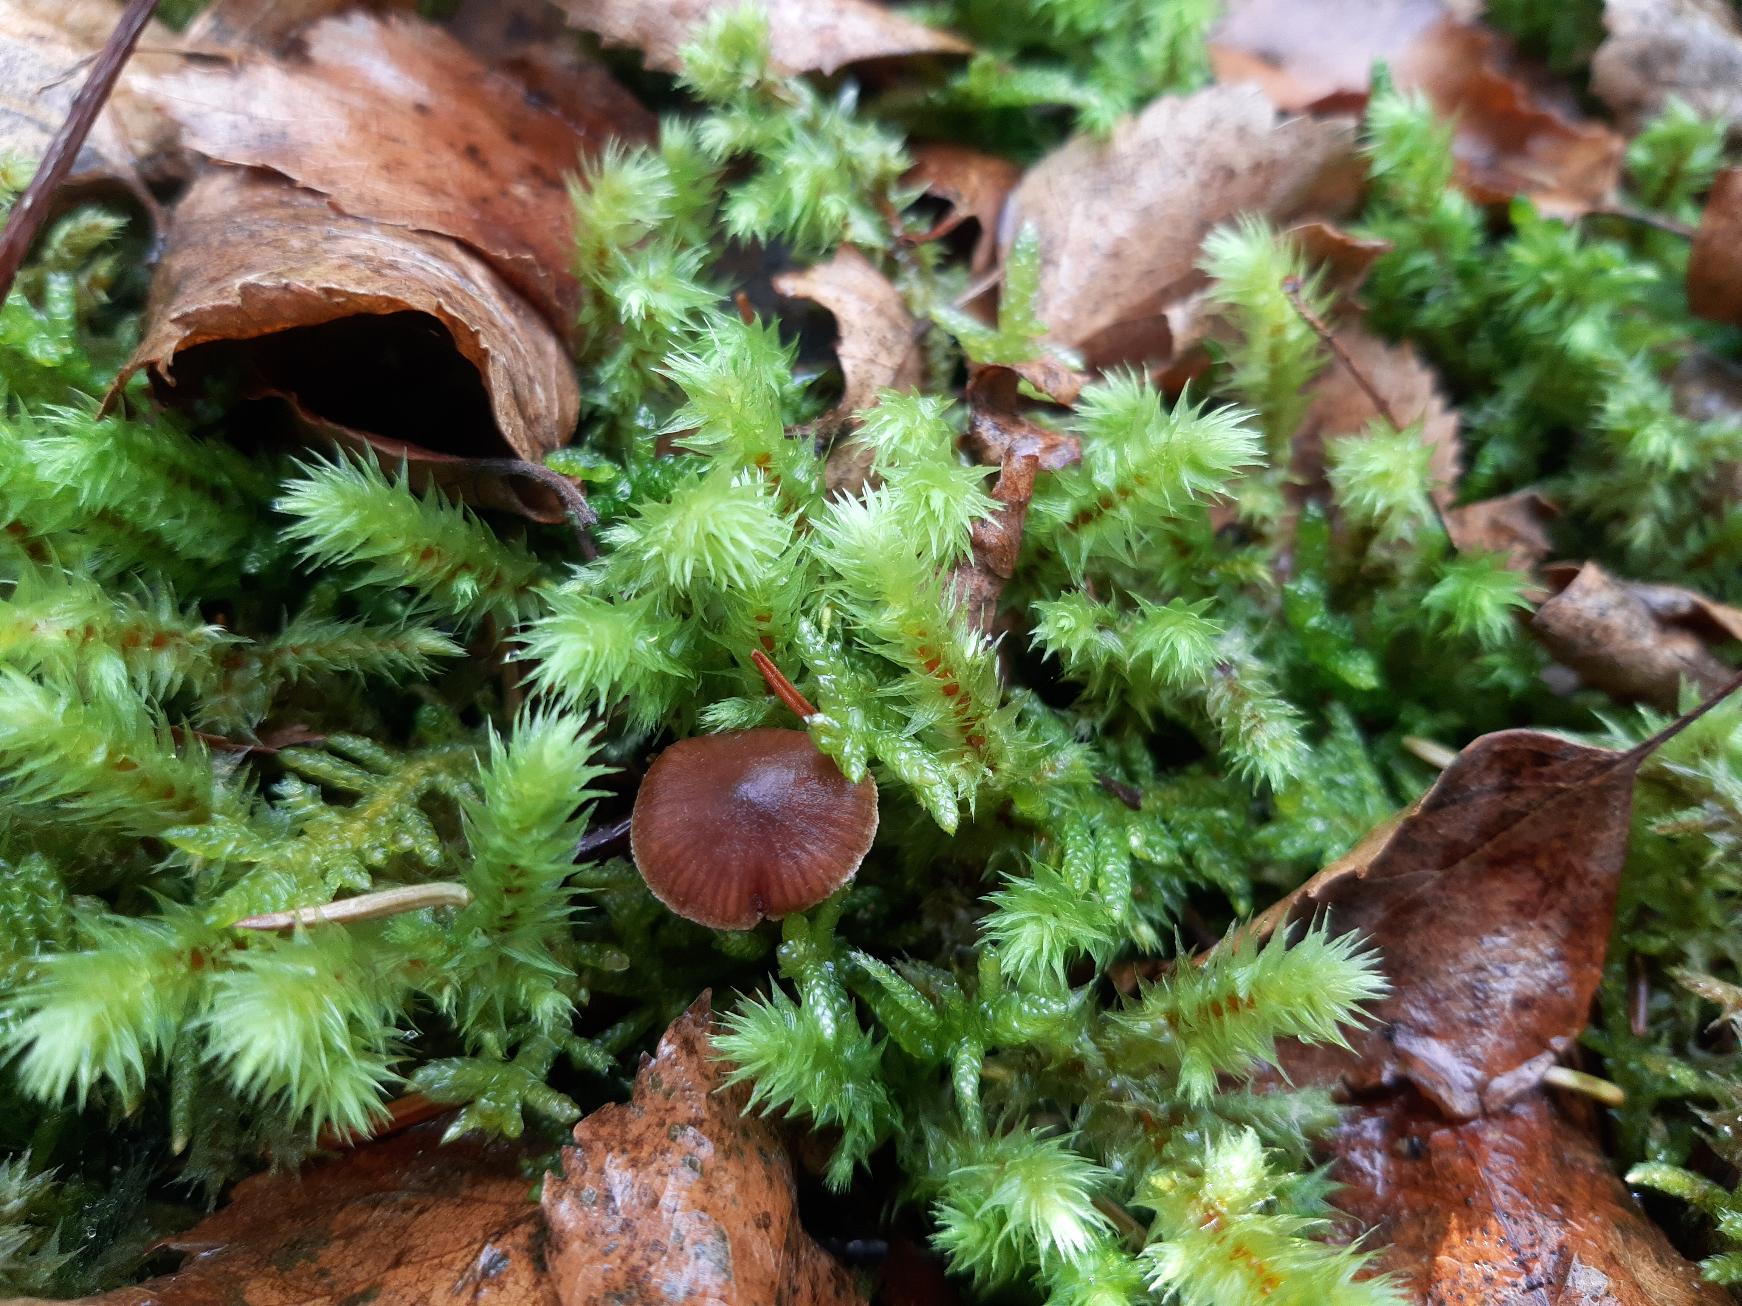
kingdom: Plantae
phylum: Bryophyta
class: Bryopsida
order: Hypnales
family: Hylocomiaceae
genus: Hylocomiadelphus
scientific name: Hylocomiadelphus triquetrus
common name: Stor kransemos
